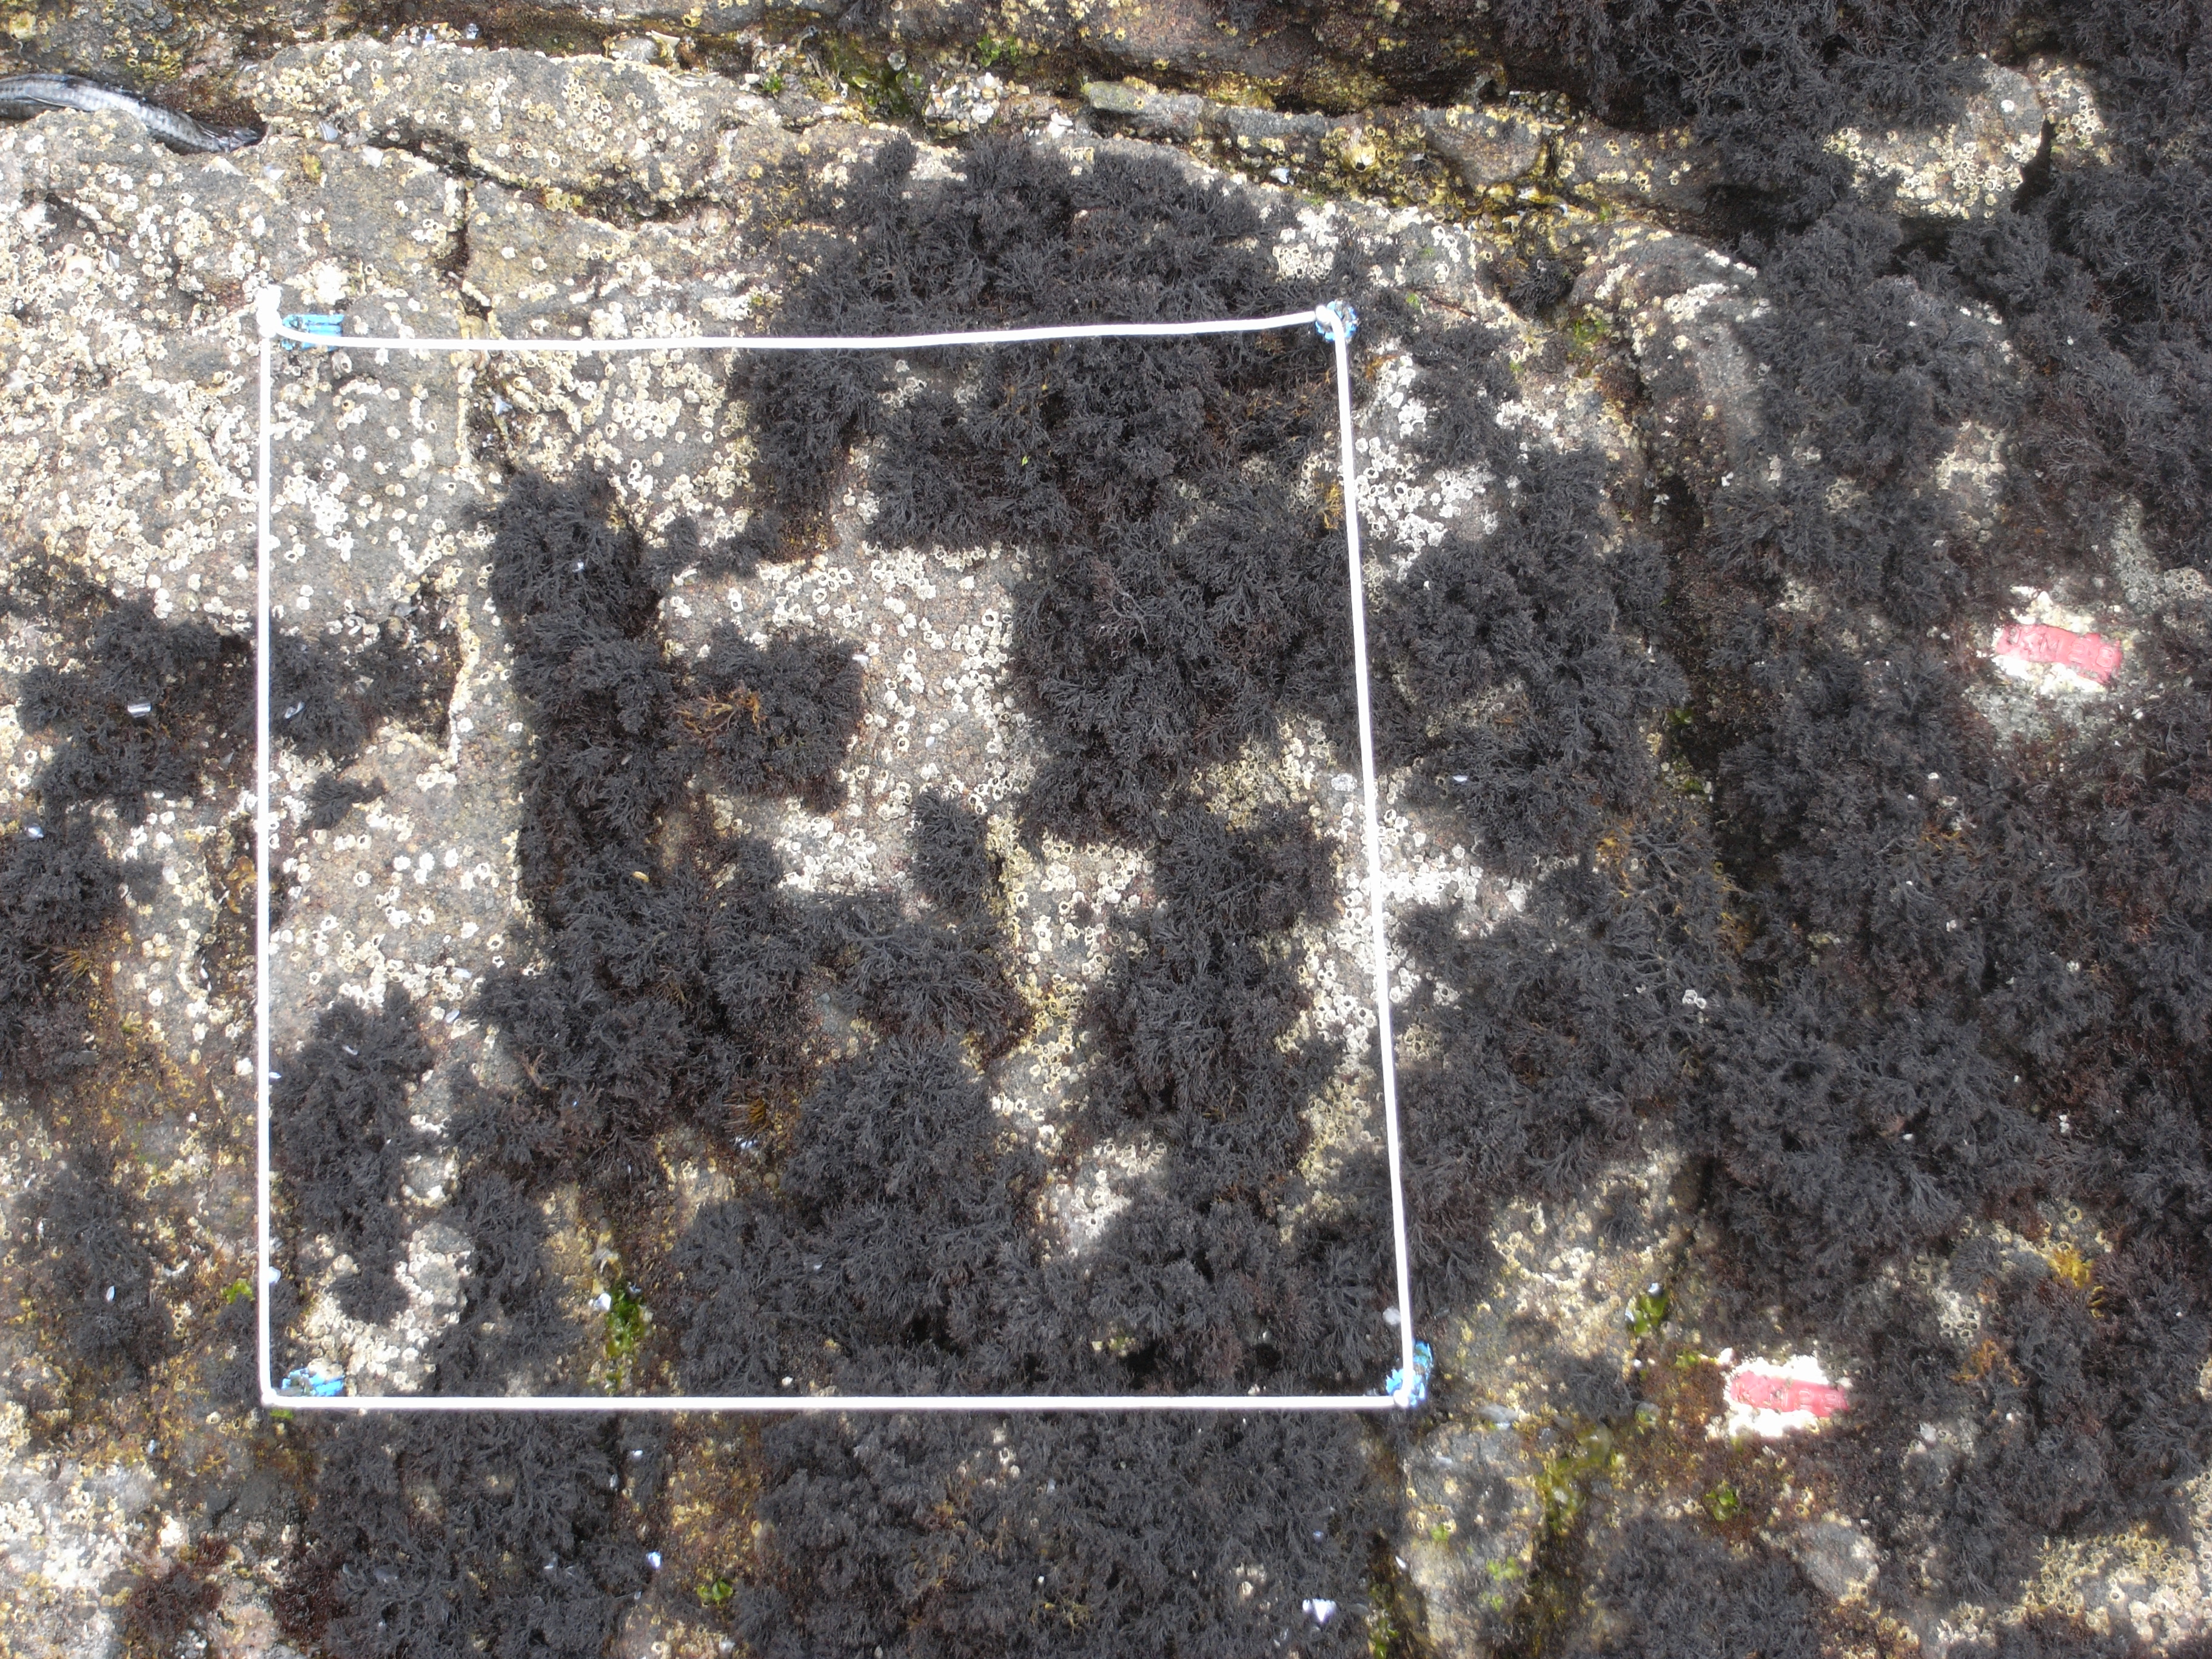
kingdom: Animalia
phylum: Arthropoda
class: Maxillopoda
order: Sessilia
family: Chthamalidae
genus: Chthamalus
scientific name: Chthamalus challengeri
